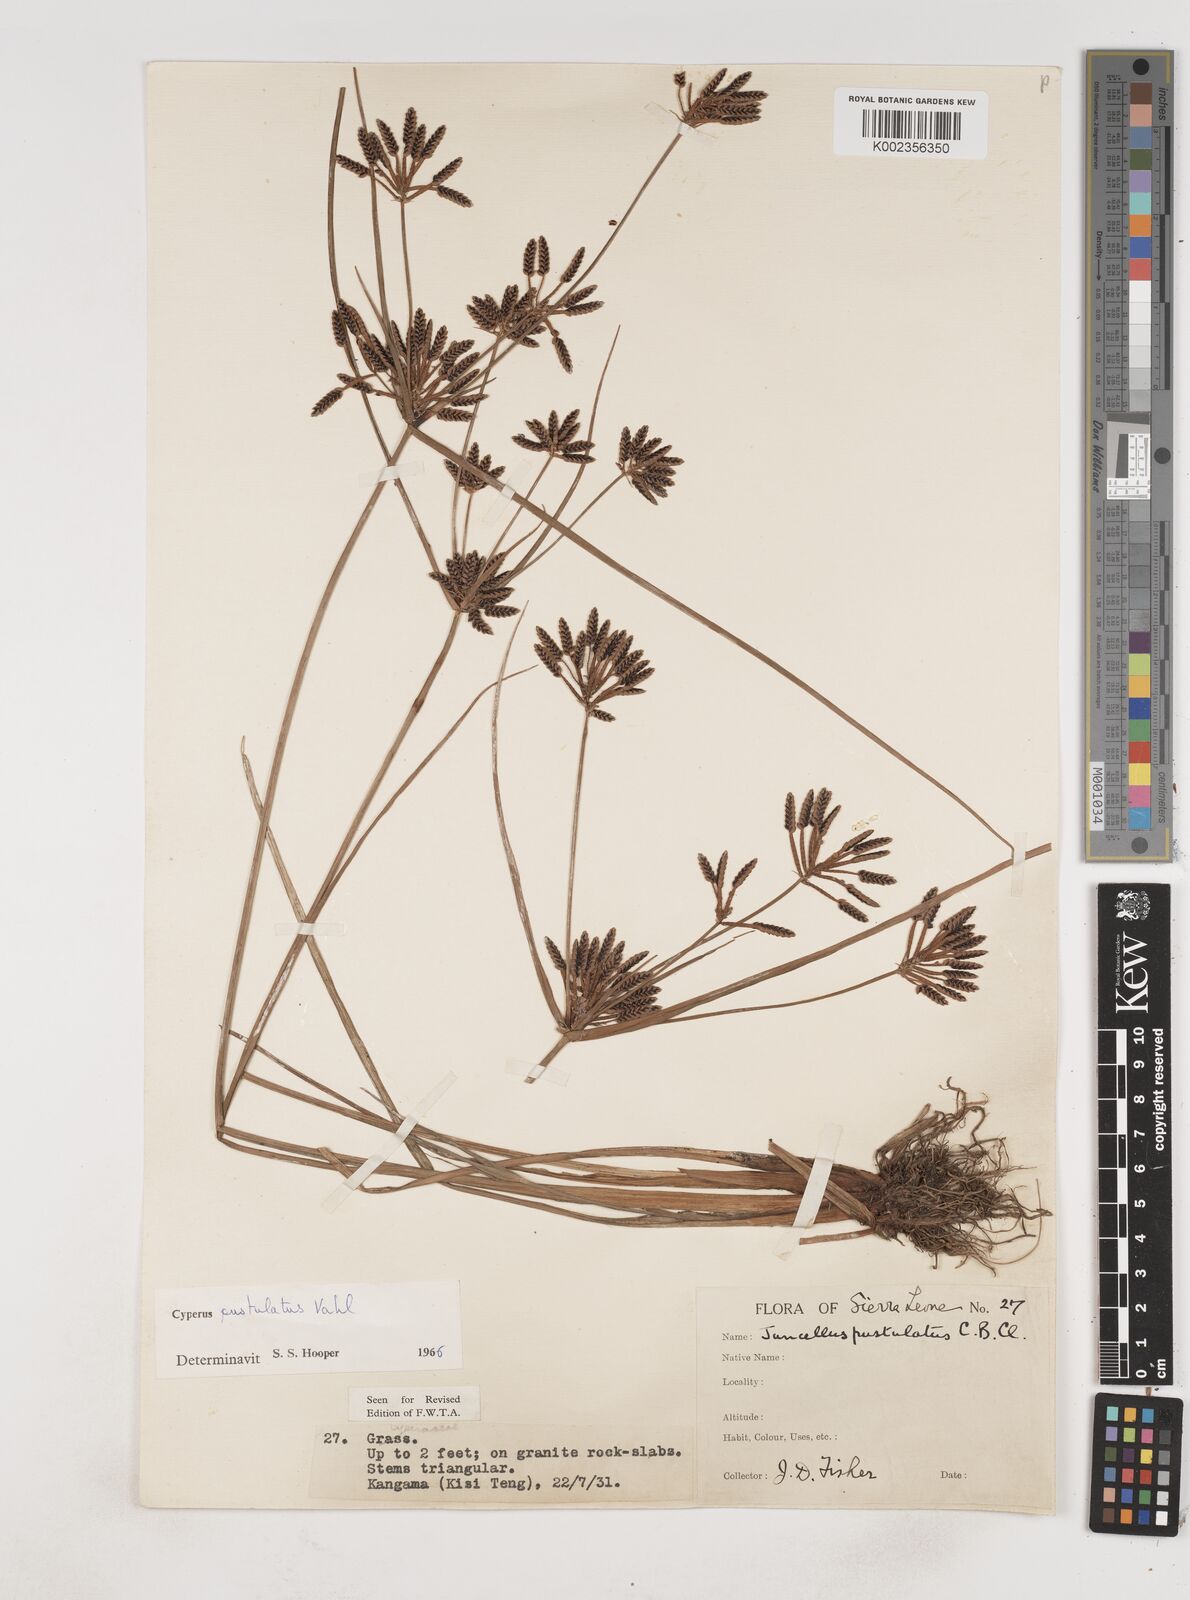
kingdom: Plantae
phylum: Tracheophyta
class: Liliopsida
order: Poales
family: Cyperaceae
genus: Cyperus
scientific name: Cyperus pustulatus
